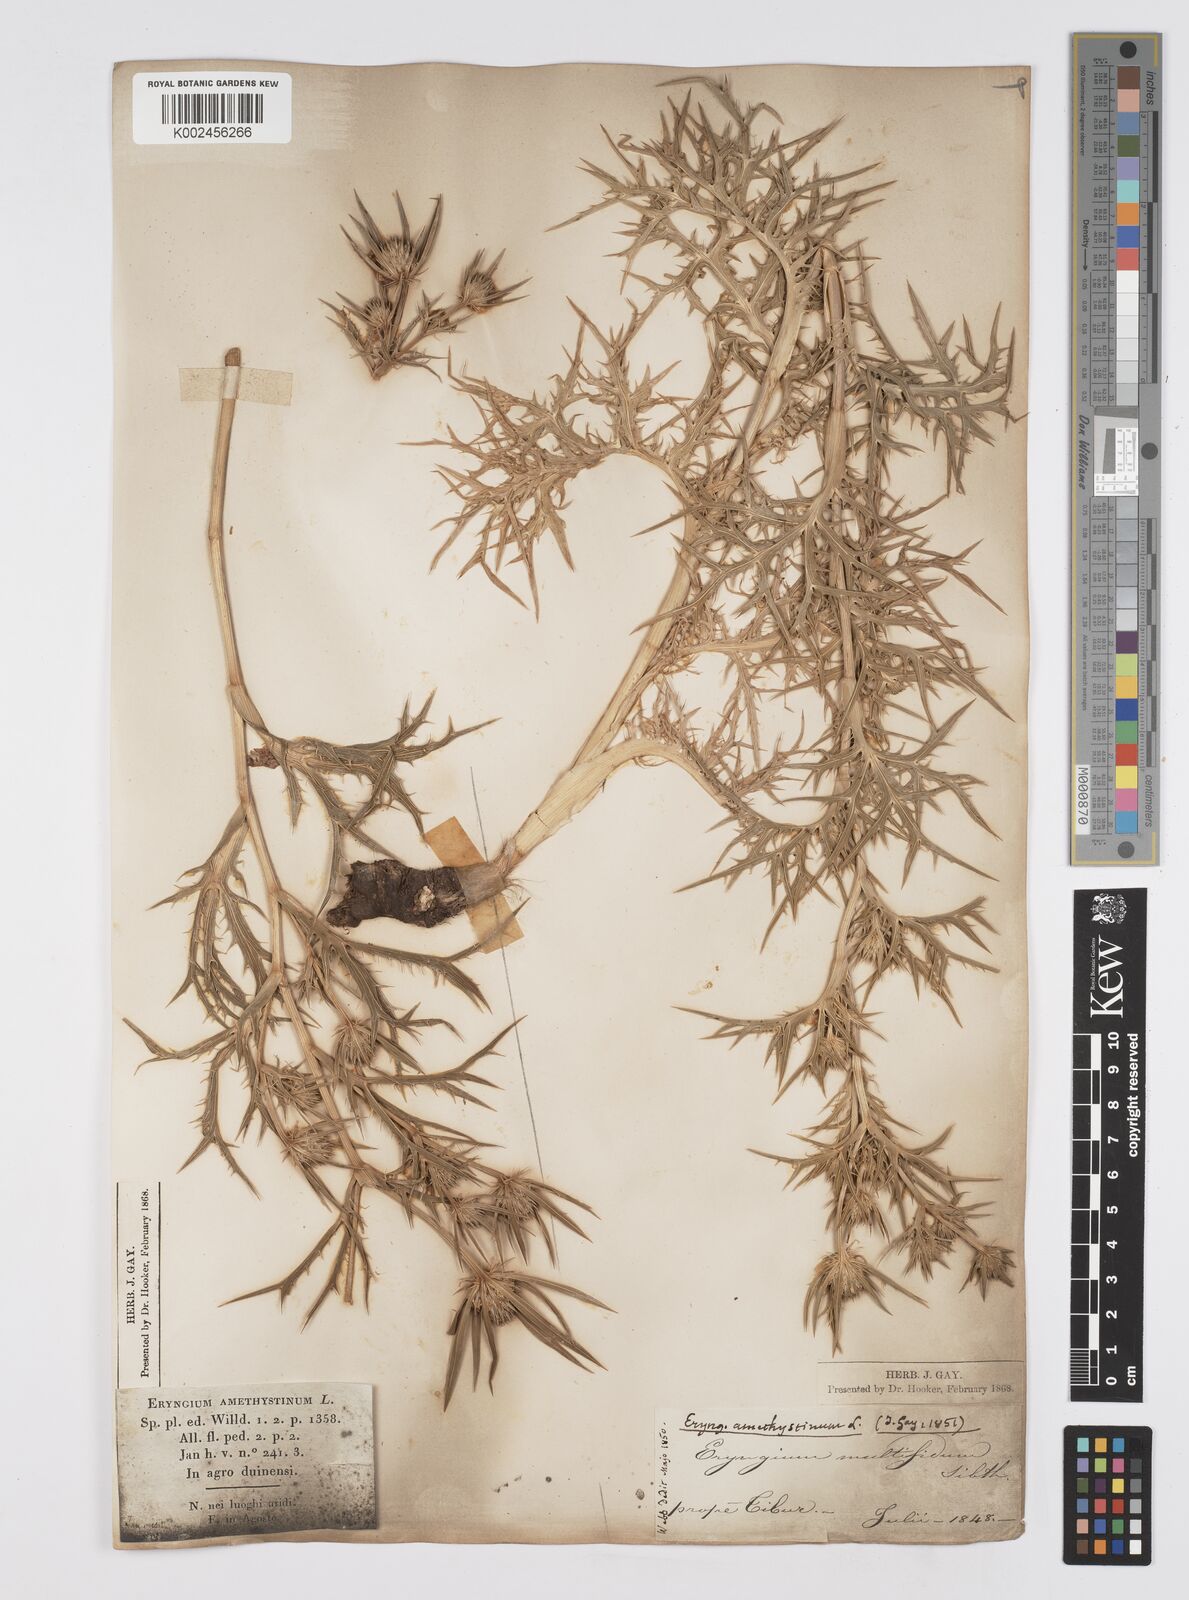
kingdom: Plantae
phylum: Tracheophyta
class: Magnoliopsida
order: Apiales
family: Apiaceae
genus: Eryngium
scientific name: Eryngium amethystinum
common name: Amethyst eryngo
